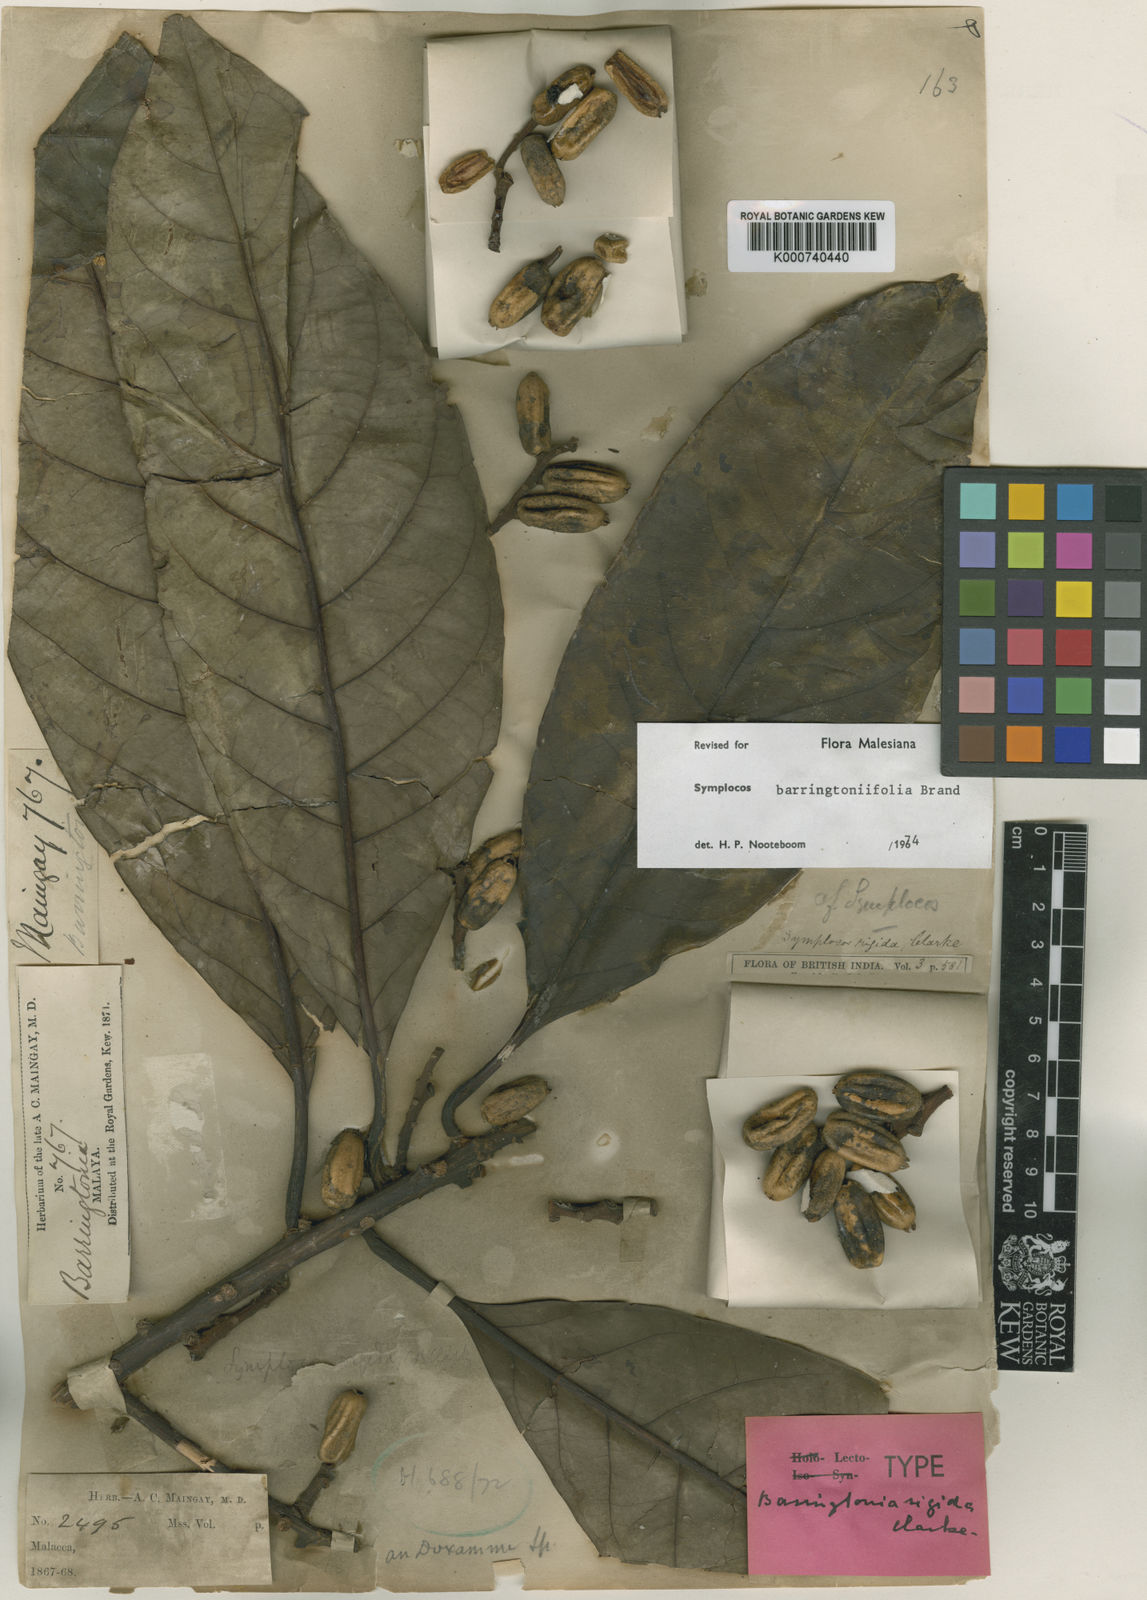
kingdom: Plantae
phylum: Tracheophyta
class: Magnoliopsida
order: Ericales
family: Symplocaceae
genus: Symplocos
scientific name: Symplocos barringtoniifolia
